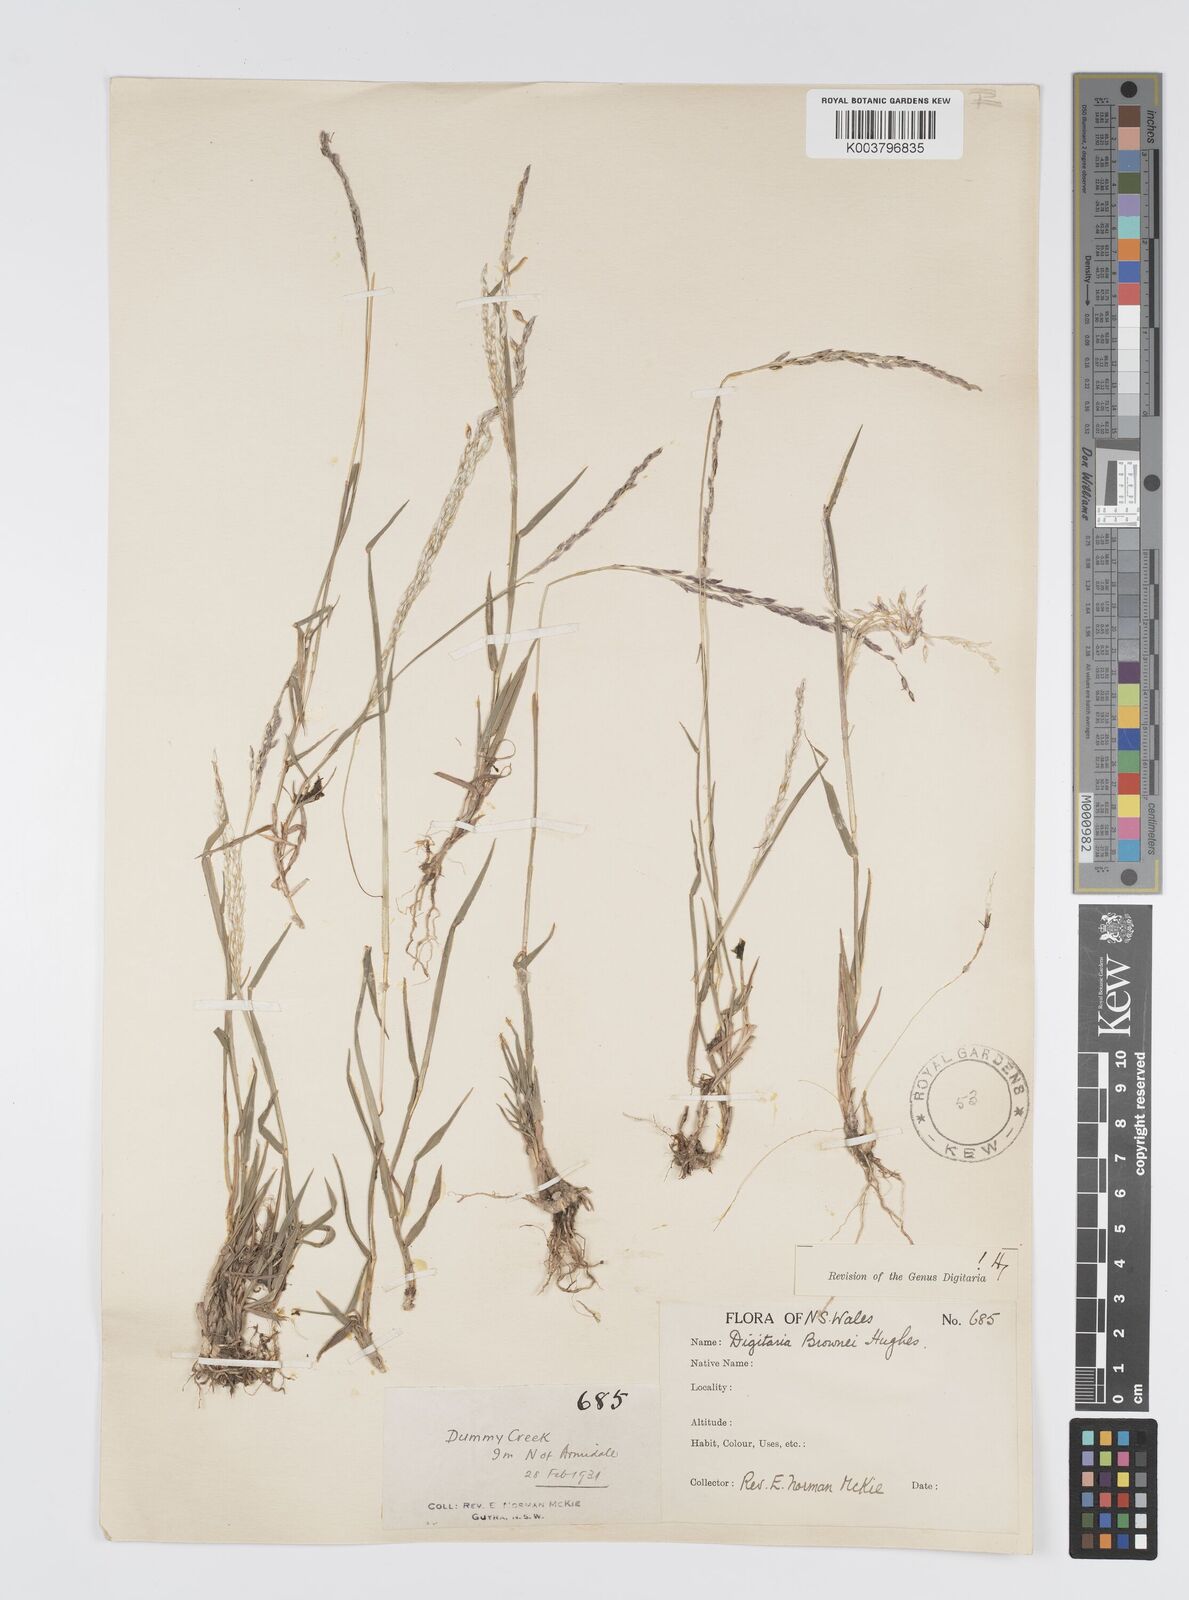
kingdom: Plantae
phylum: Tracheophyta
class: Liliopsida
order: Poales
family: Poaceae
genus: Digitaria
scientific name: Digitaria brownii
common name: Cotton grass
